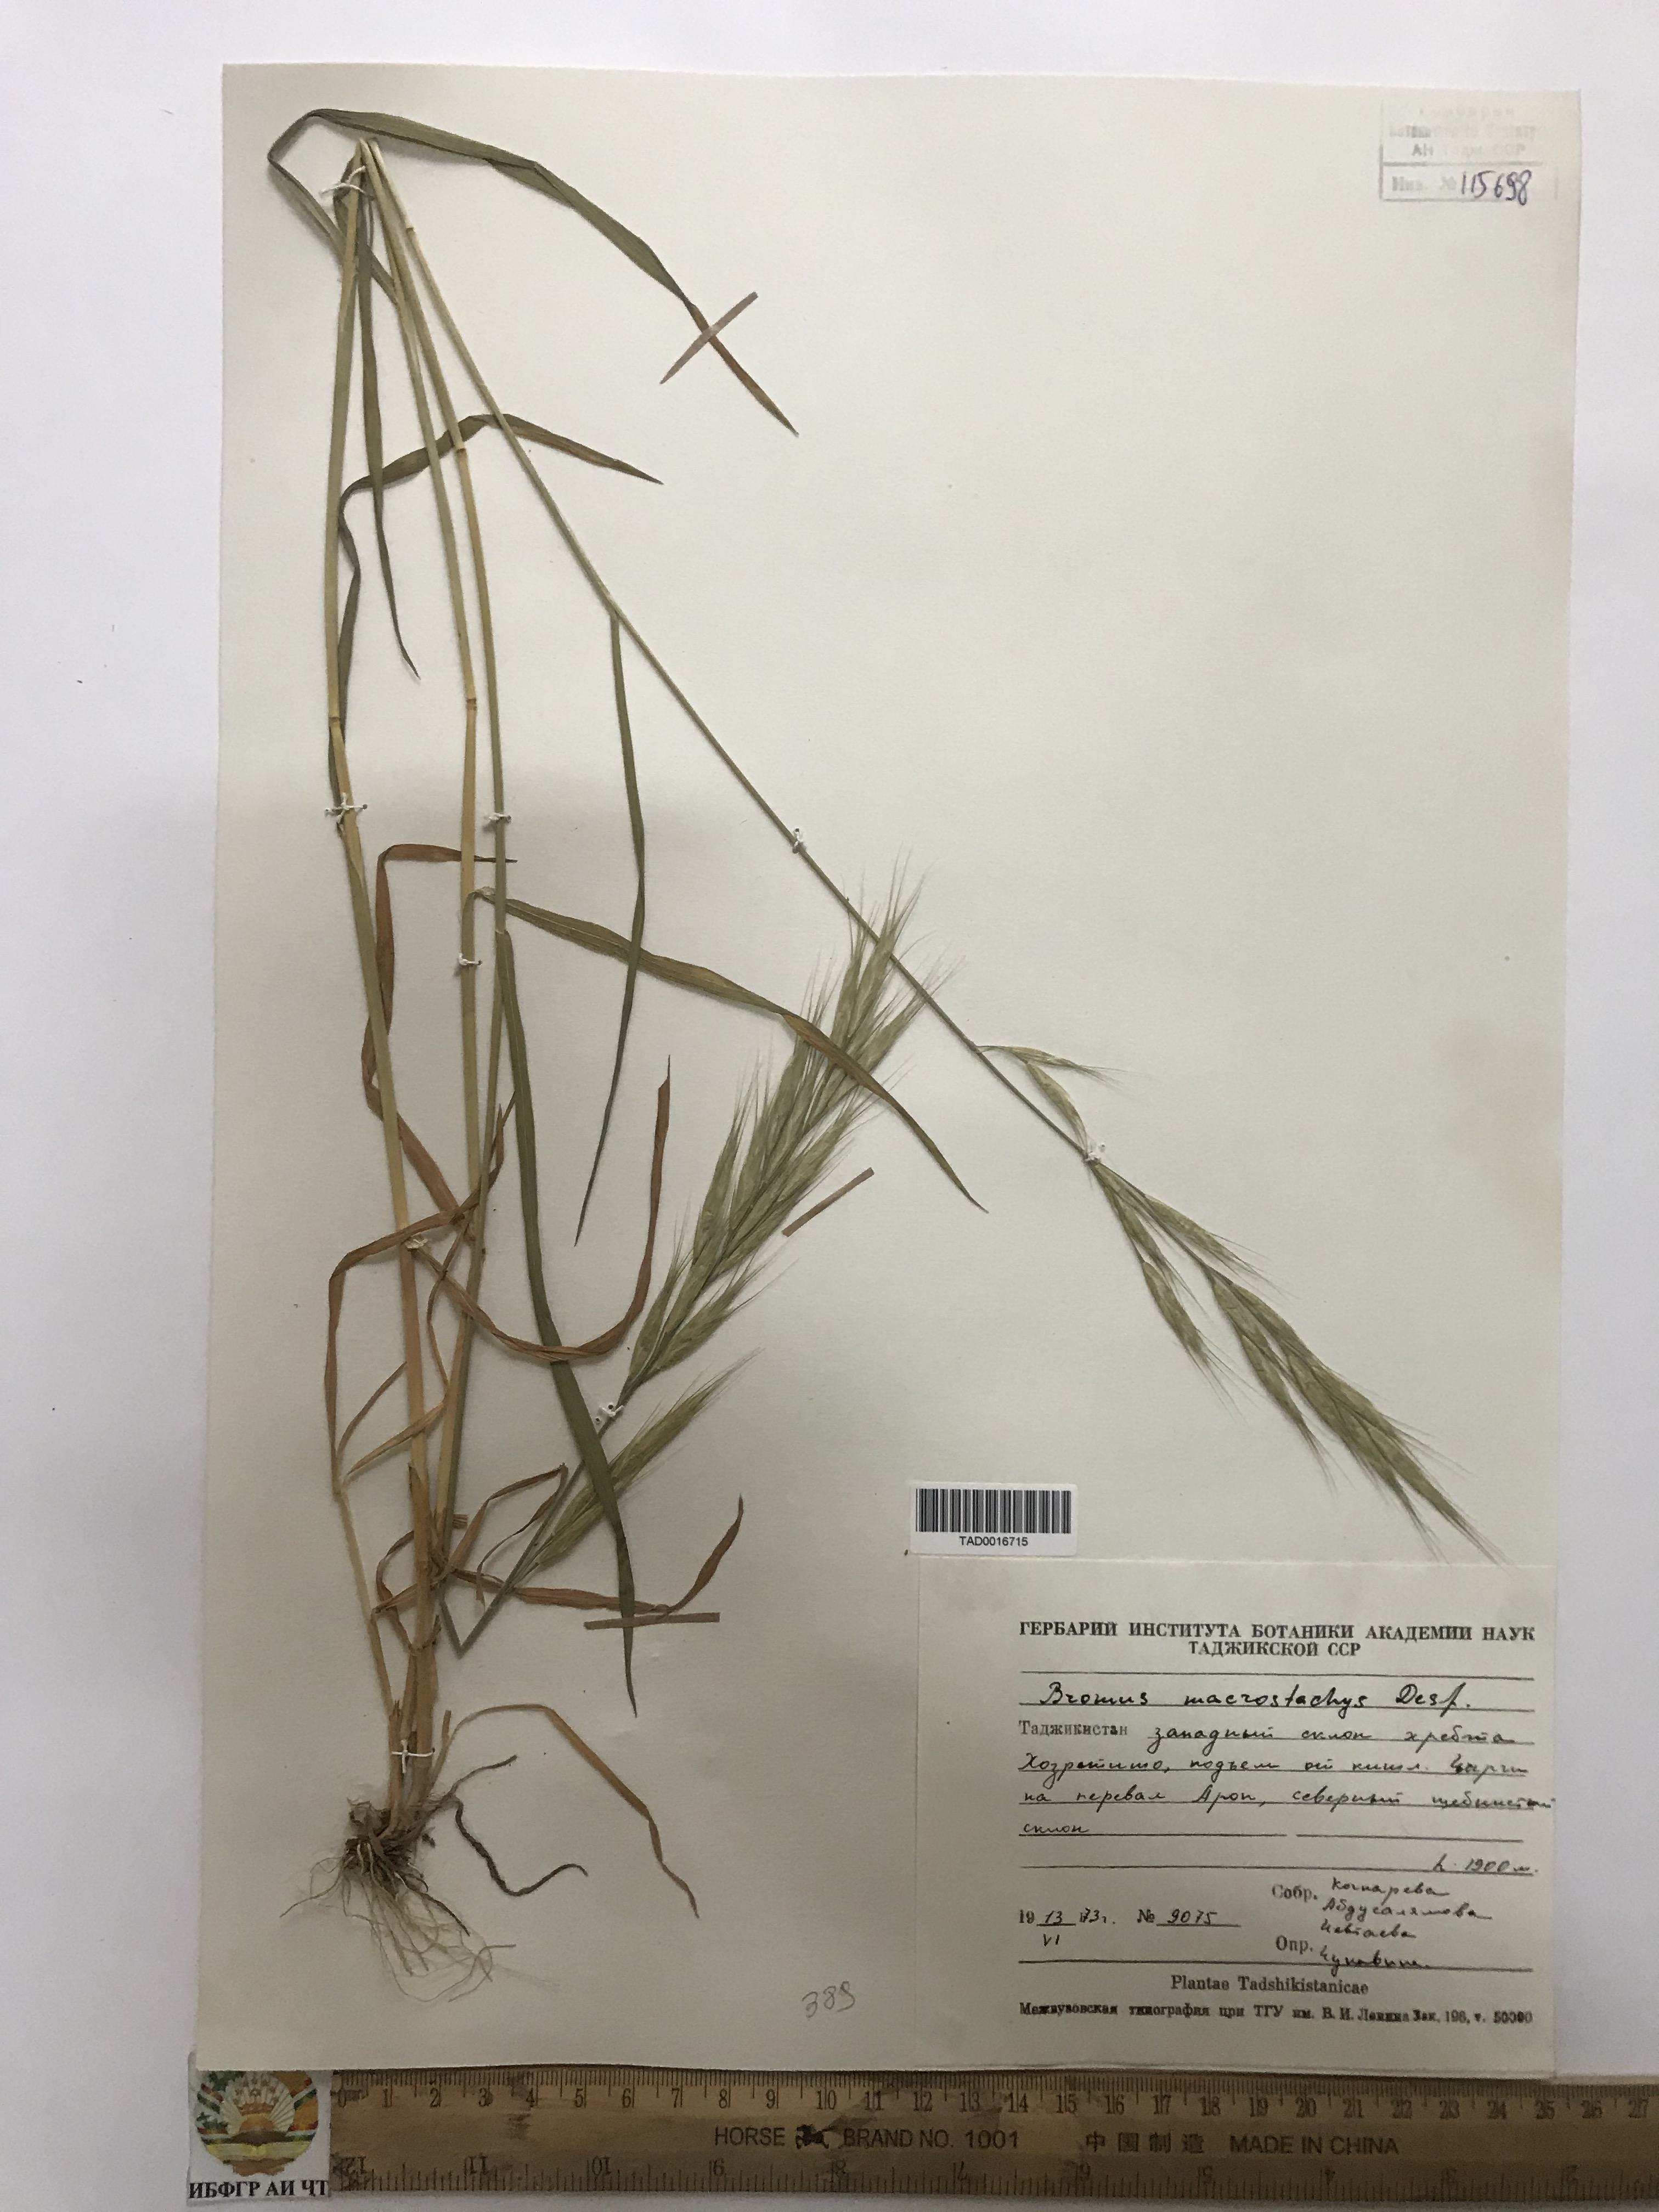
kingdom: Plantae
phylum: Tracheophyta
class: Liliopsida
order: Poales
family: Poaceae
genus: Bromus
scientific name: Bromus lanceolatus
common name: Mediterranean brome
